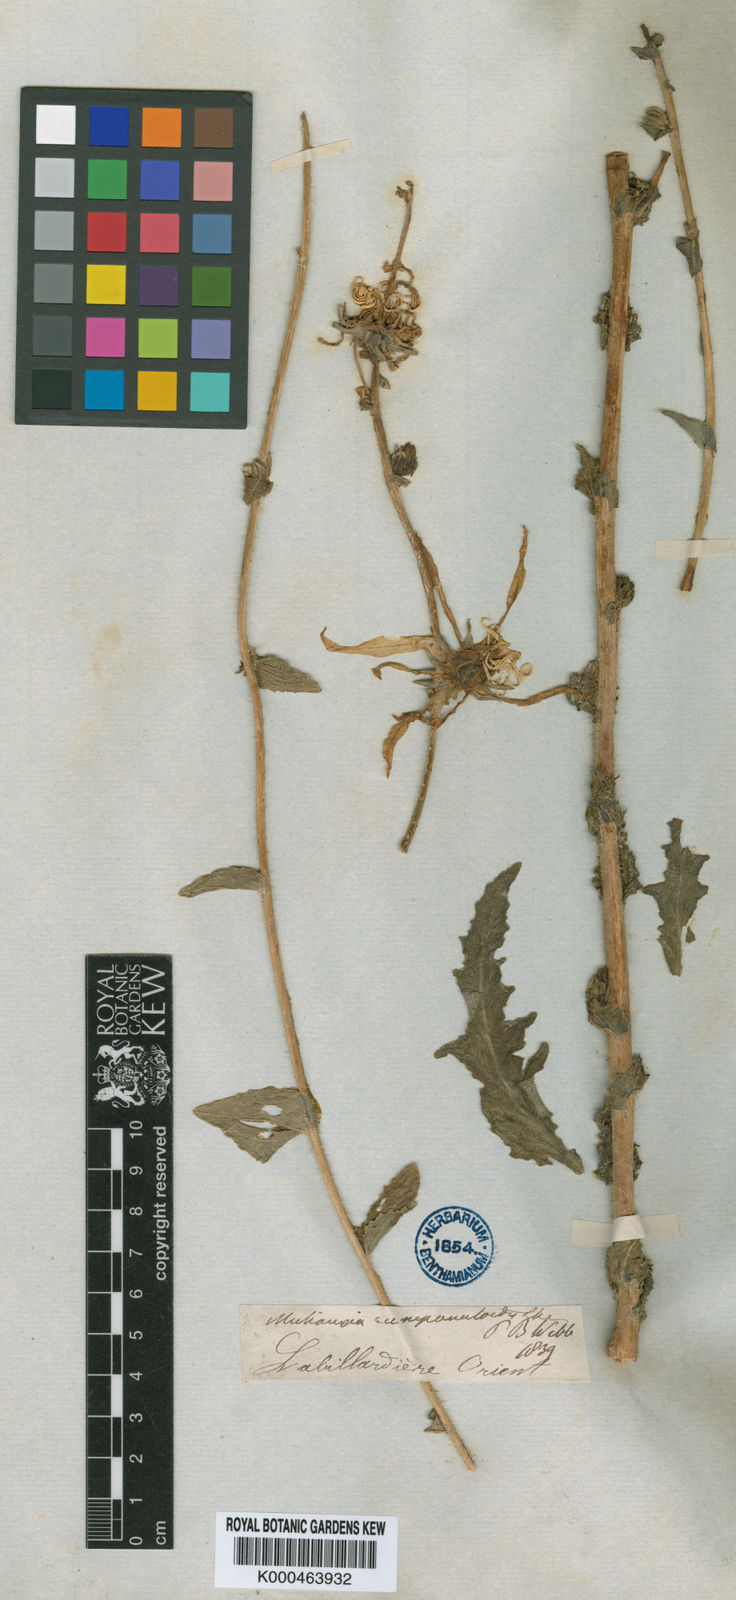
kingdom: Plantae
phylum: Tracheophyta
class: Magnoliopsida
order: Asterales
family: Campanulaceae
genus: Michauxia
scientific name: Michauxia
